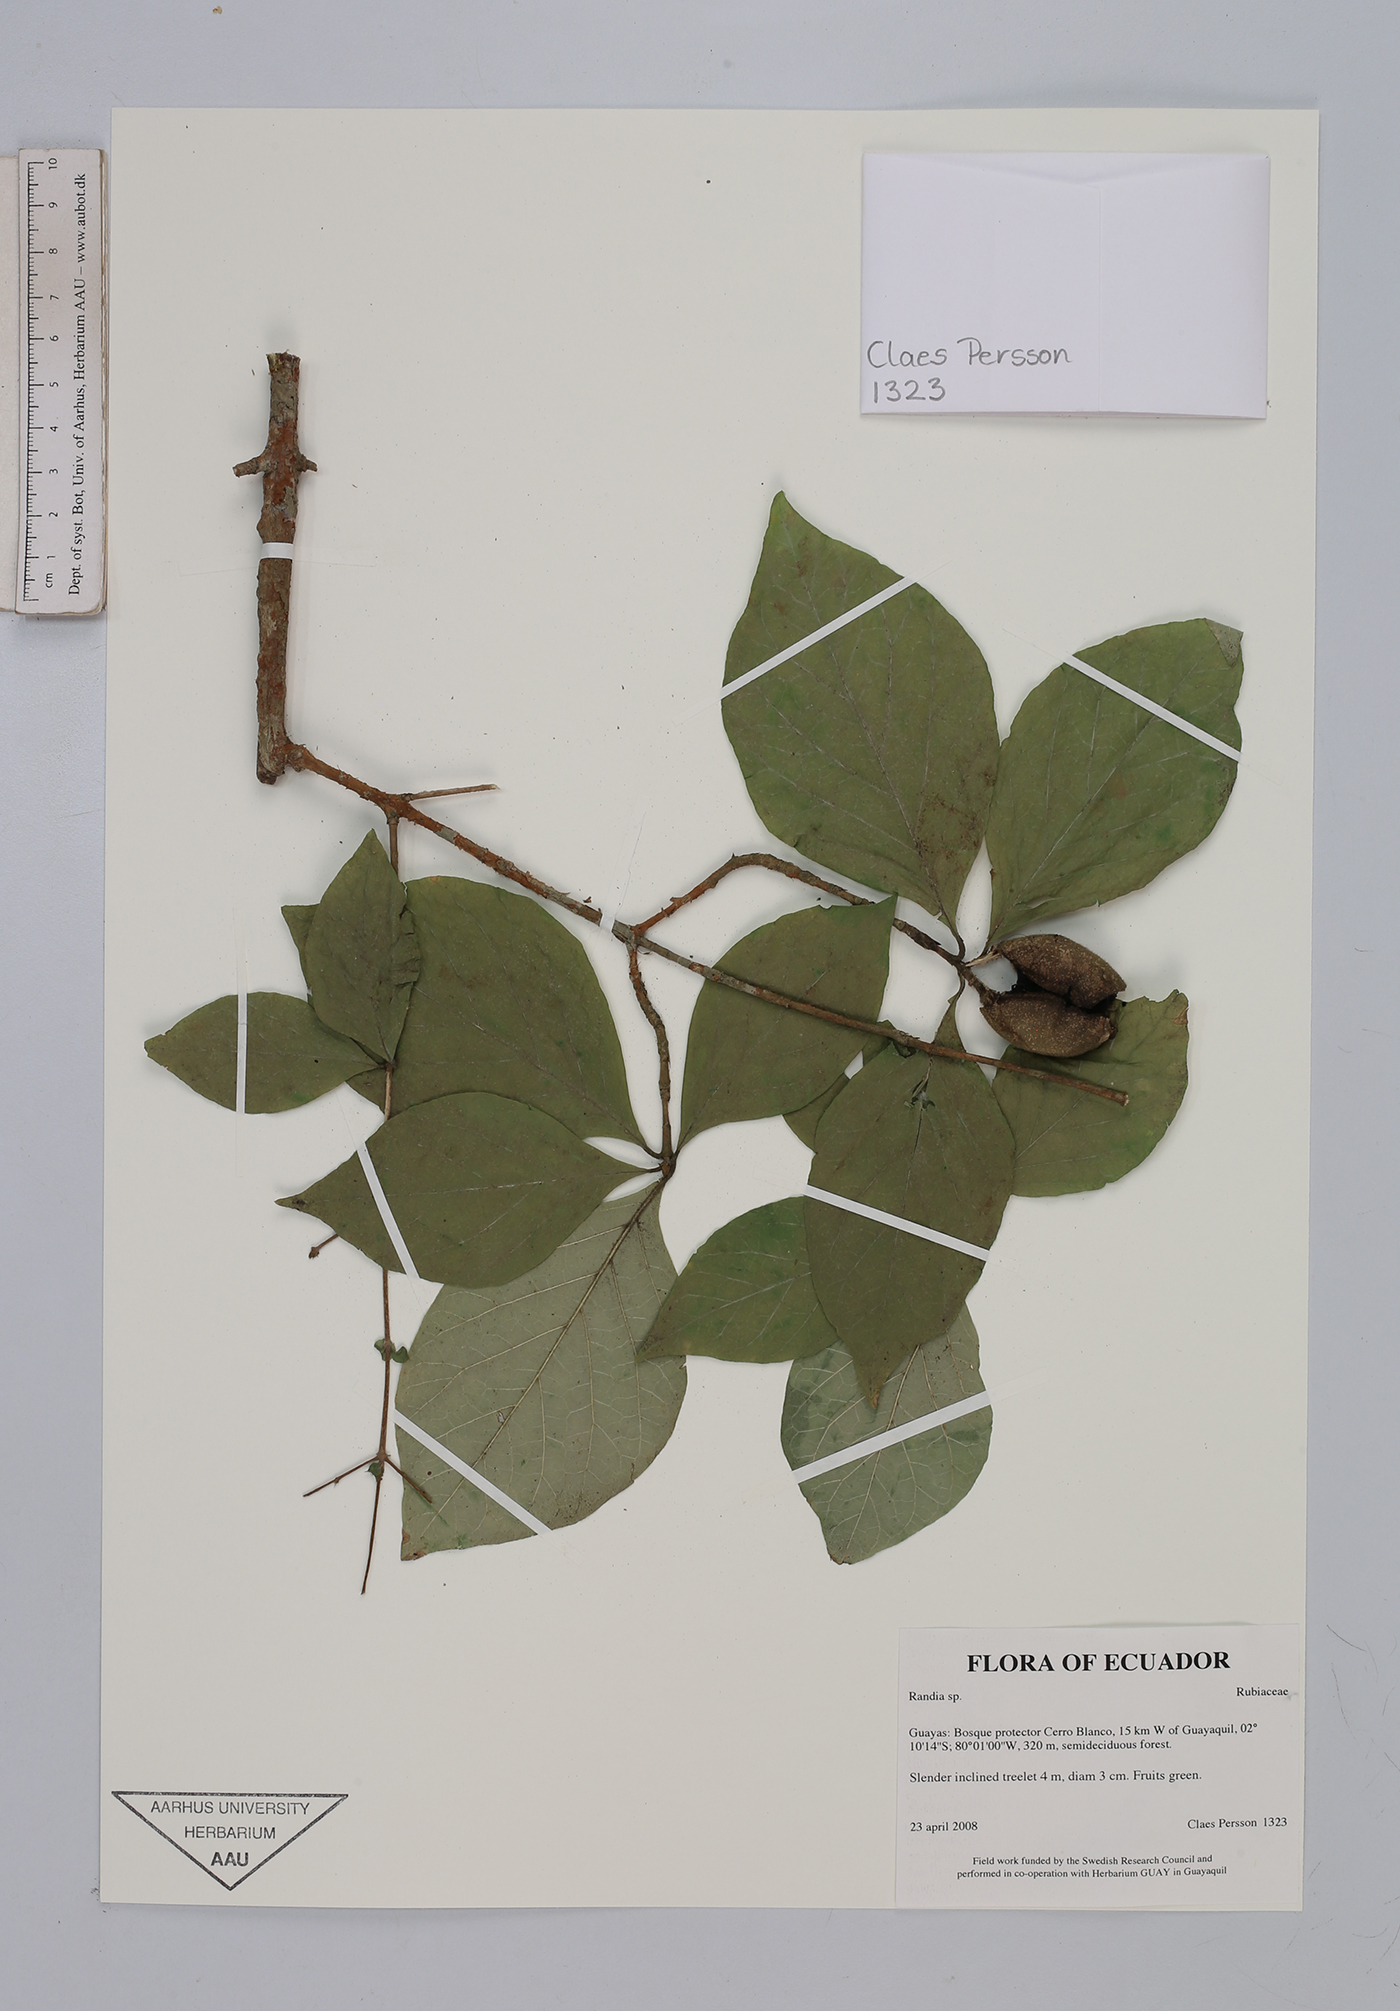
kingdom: Plantae
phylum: Tracheophyta
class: Magnoliopsida
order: Gentianales
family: Rubiaceae
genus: Randia
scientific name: Randia
